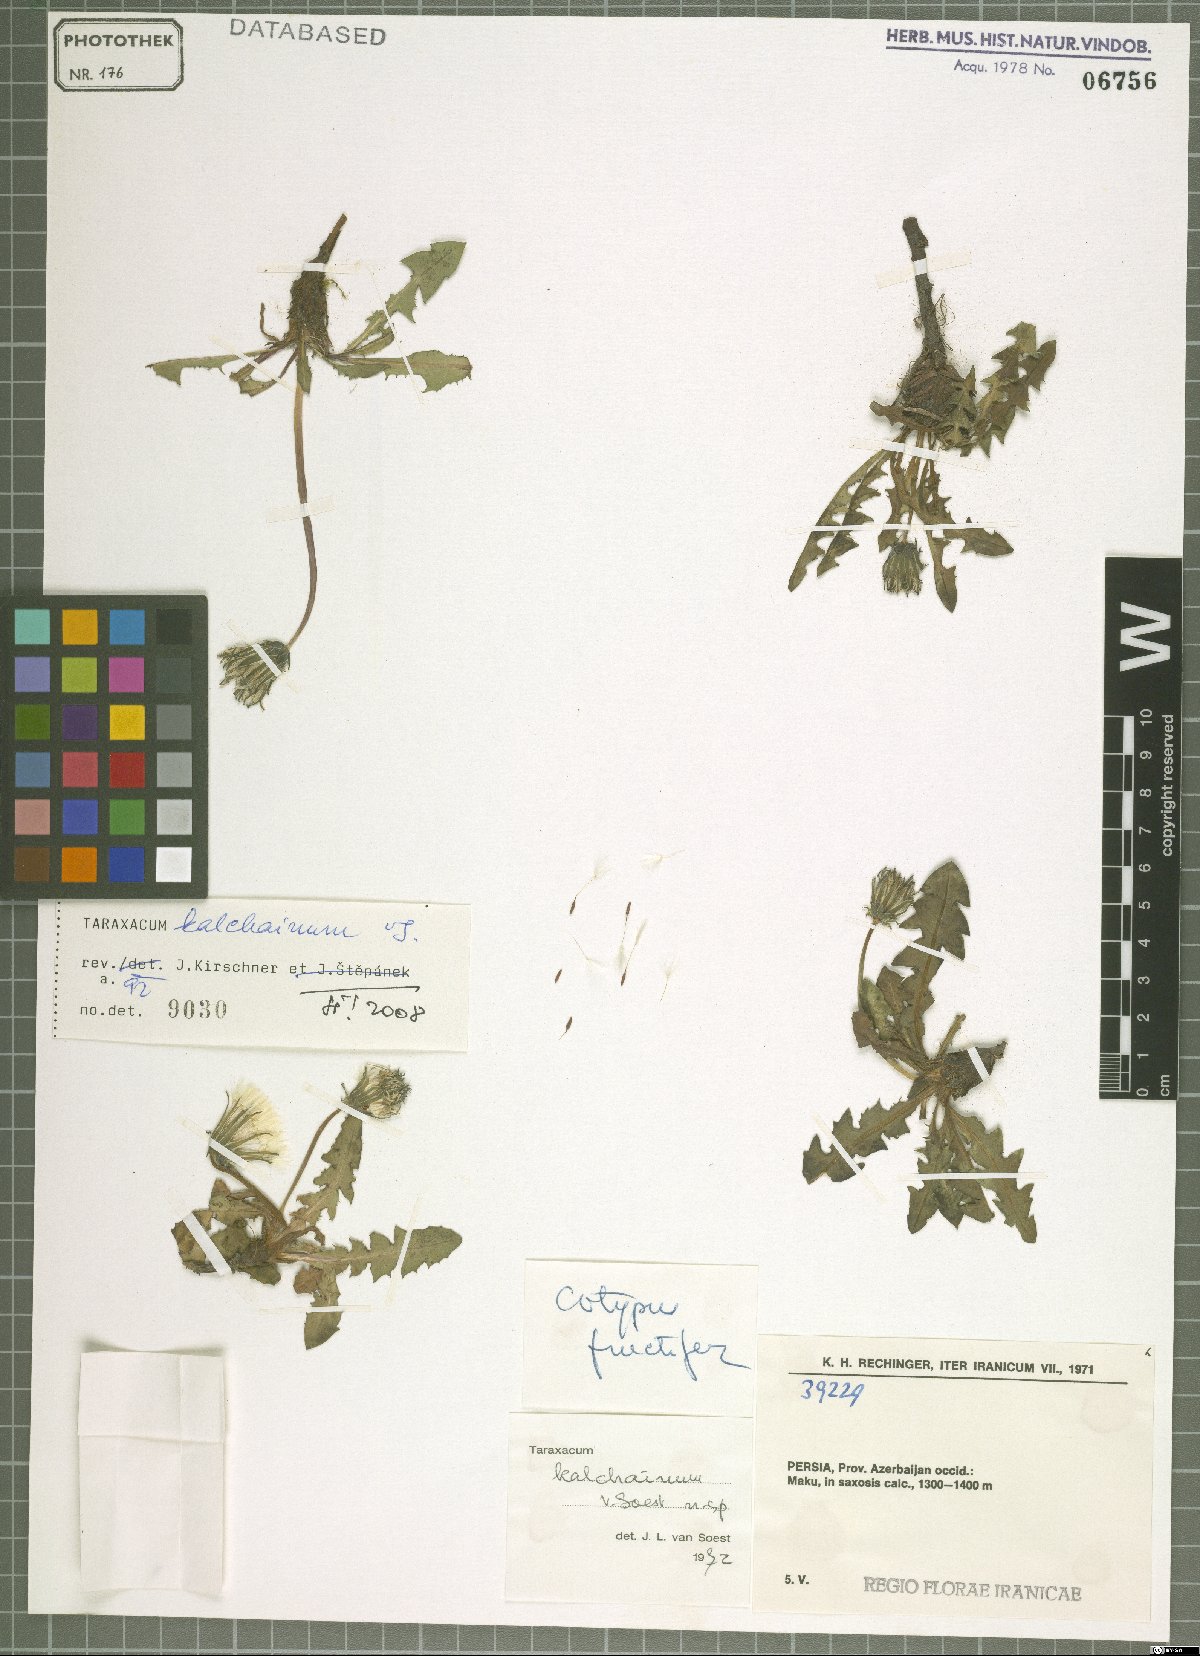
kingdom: Plantae
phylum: Tracheophyta
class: Magnoliopsida
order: Asterales
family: Asteraceae
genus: Taraxacum
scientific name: Taraxacum kalchainum
